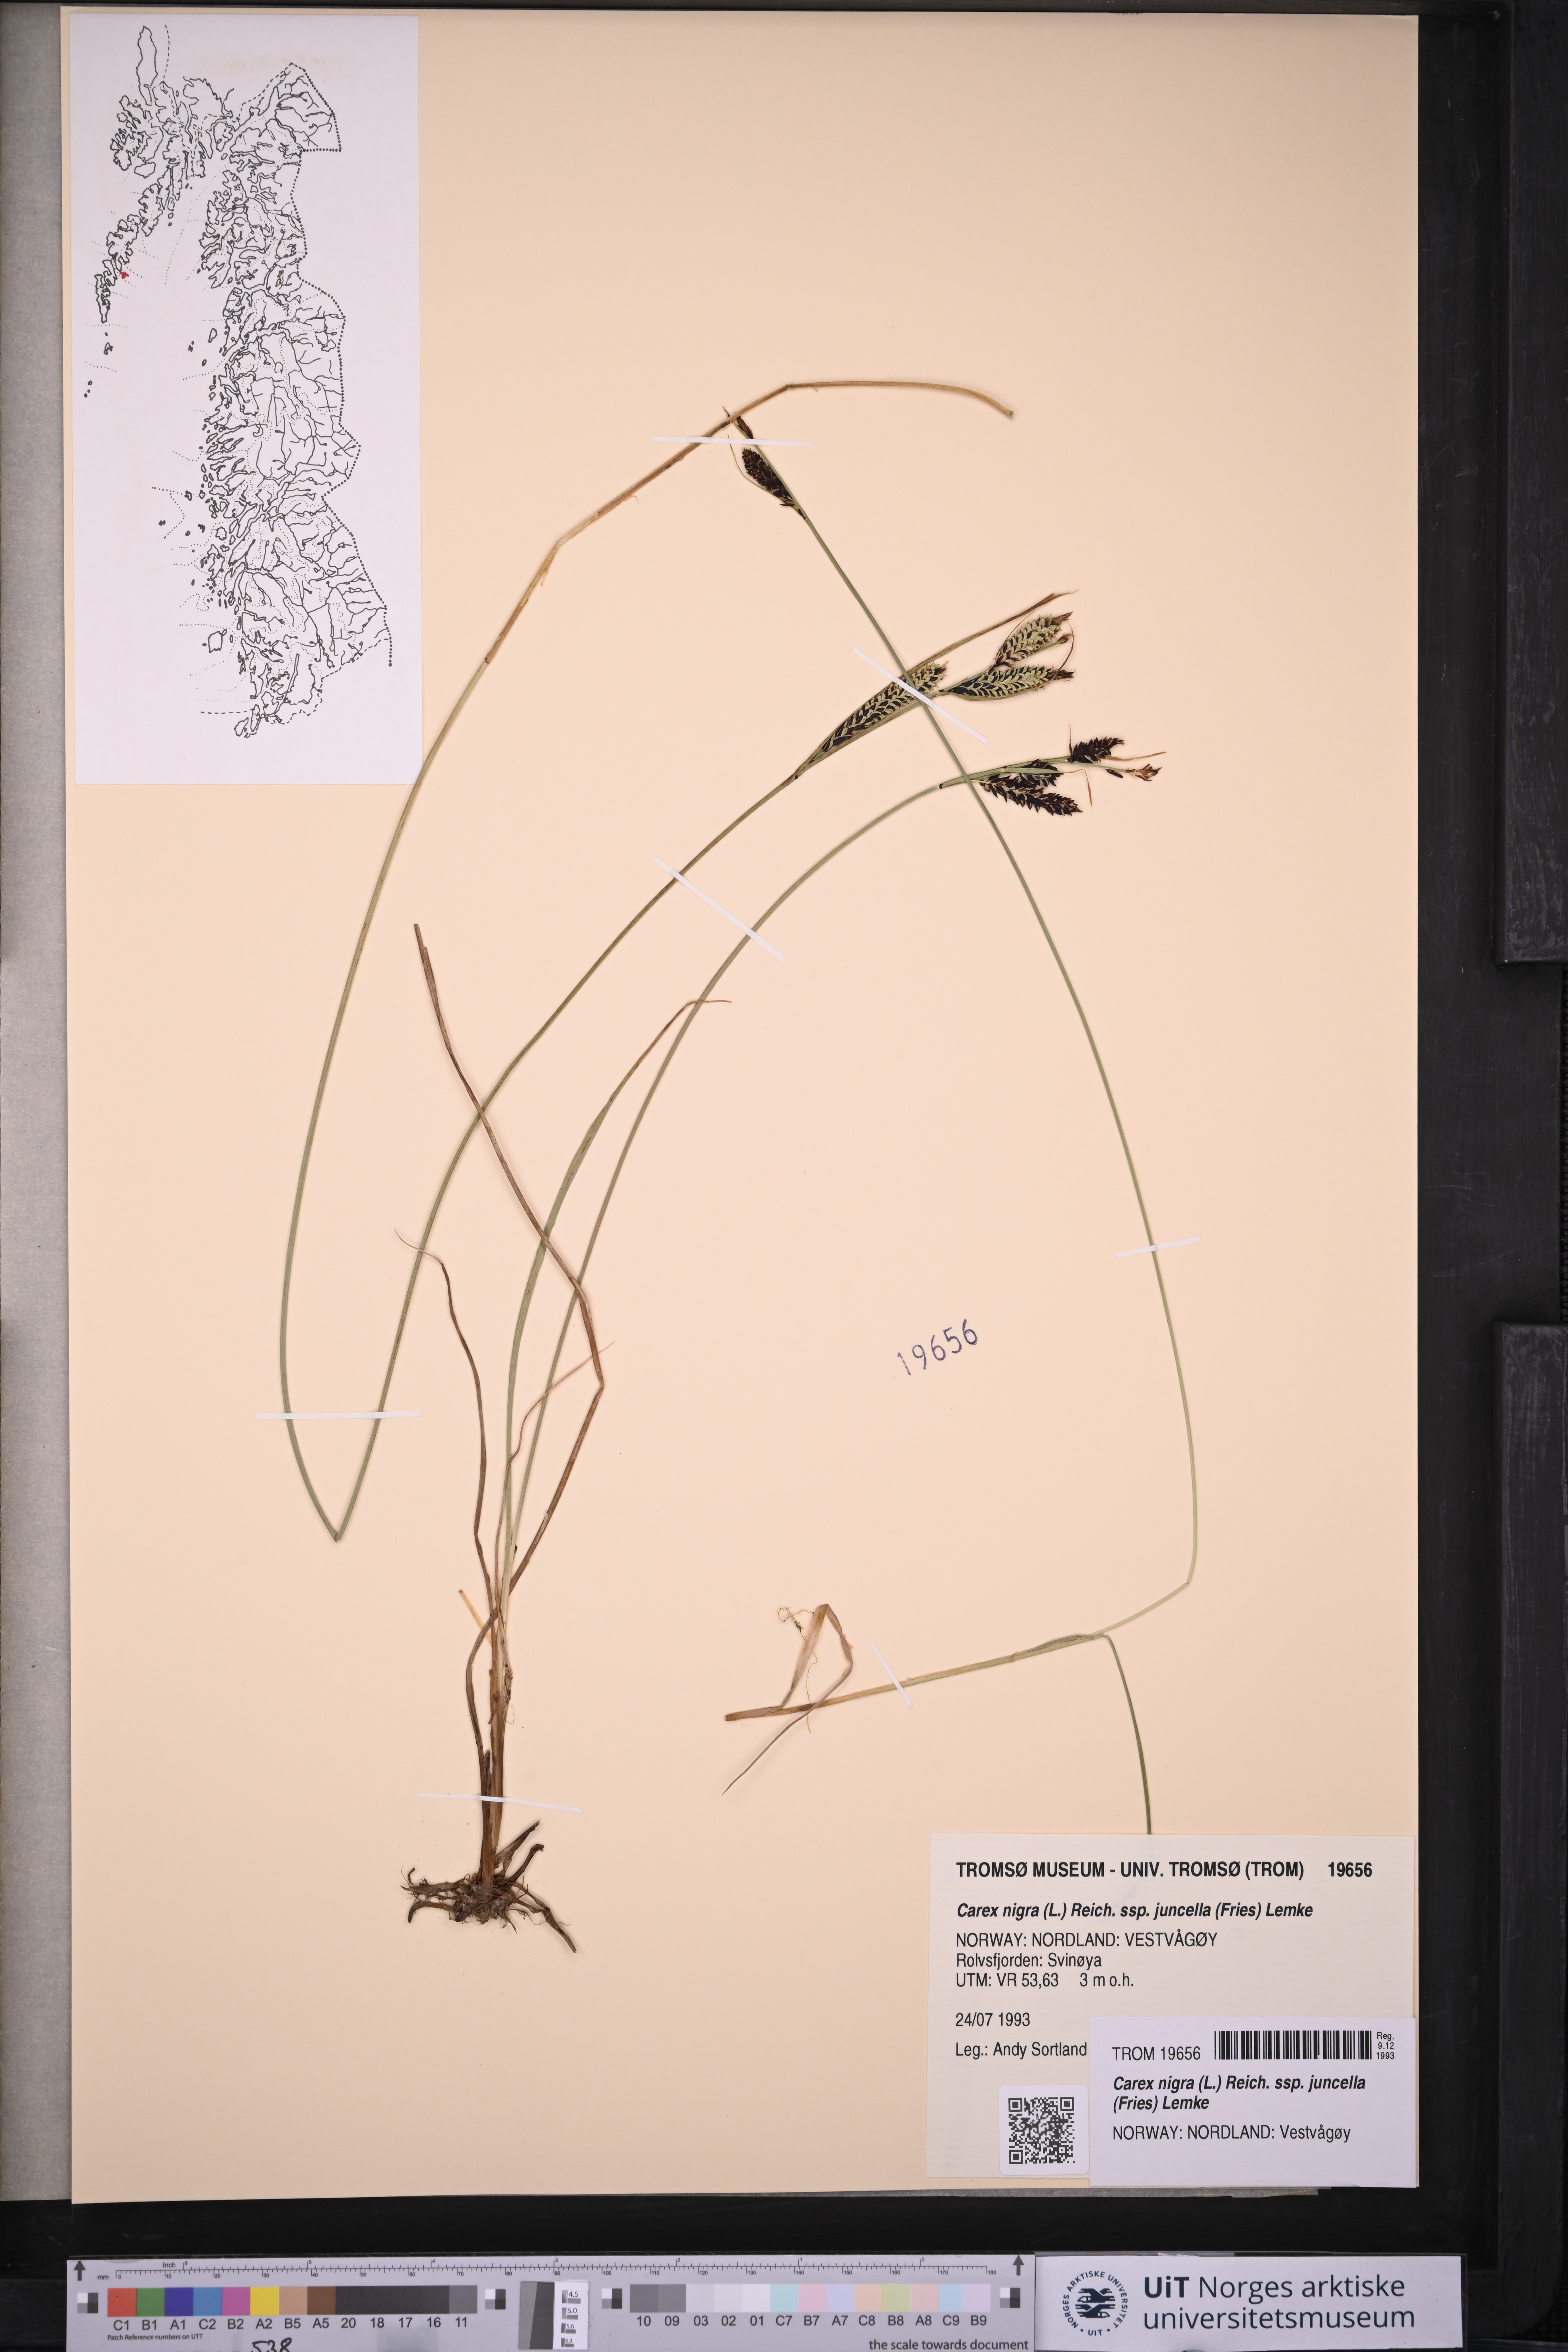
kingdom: Plantae
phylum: Tracheophyta
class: Liliopsida
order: Poales
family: Cyperaceae
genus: Carex
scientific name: Carex nigra
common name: Common sedge
